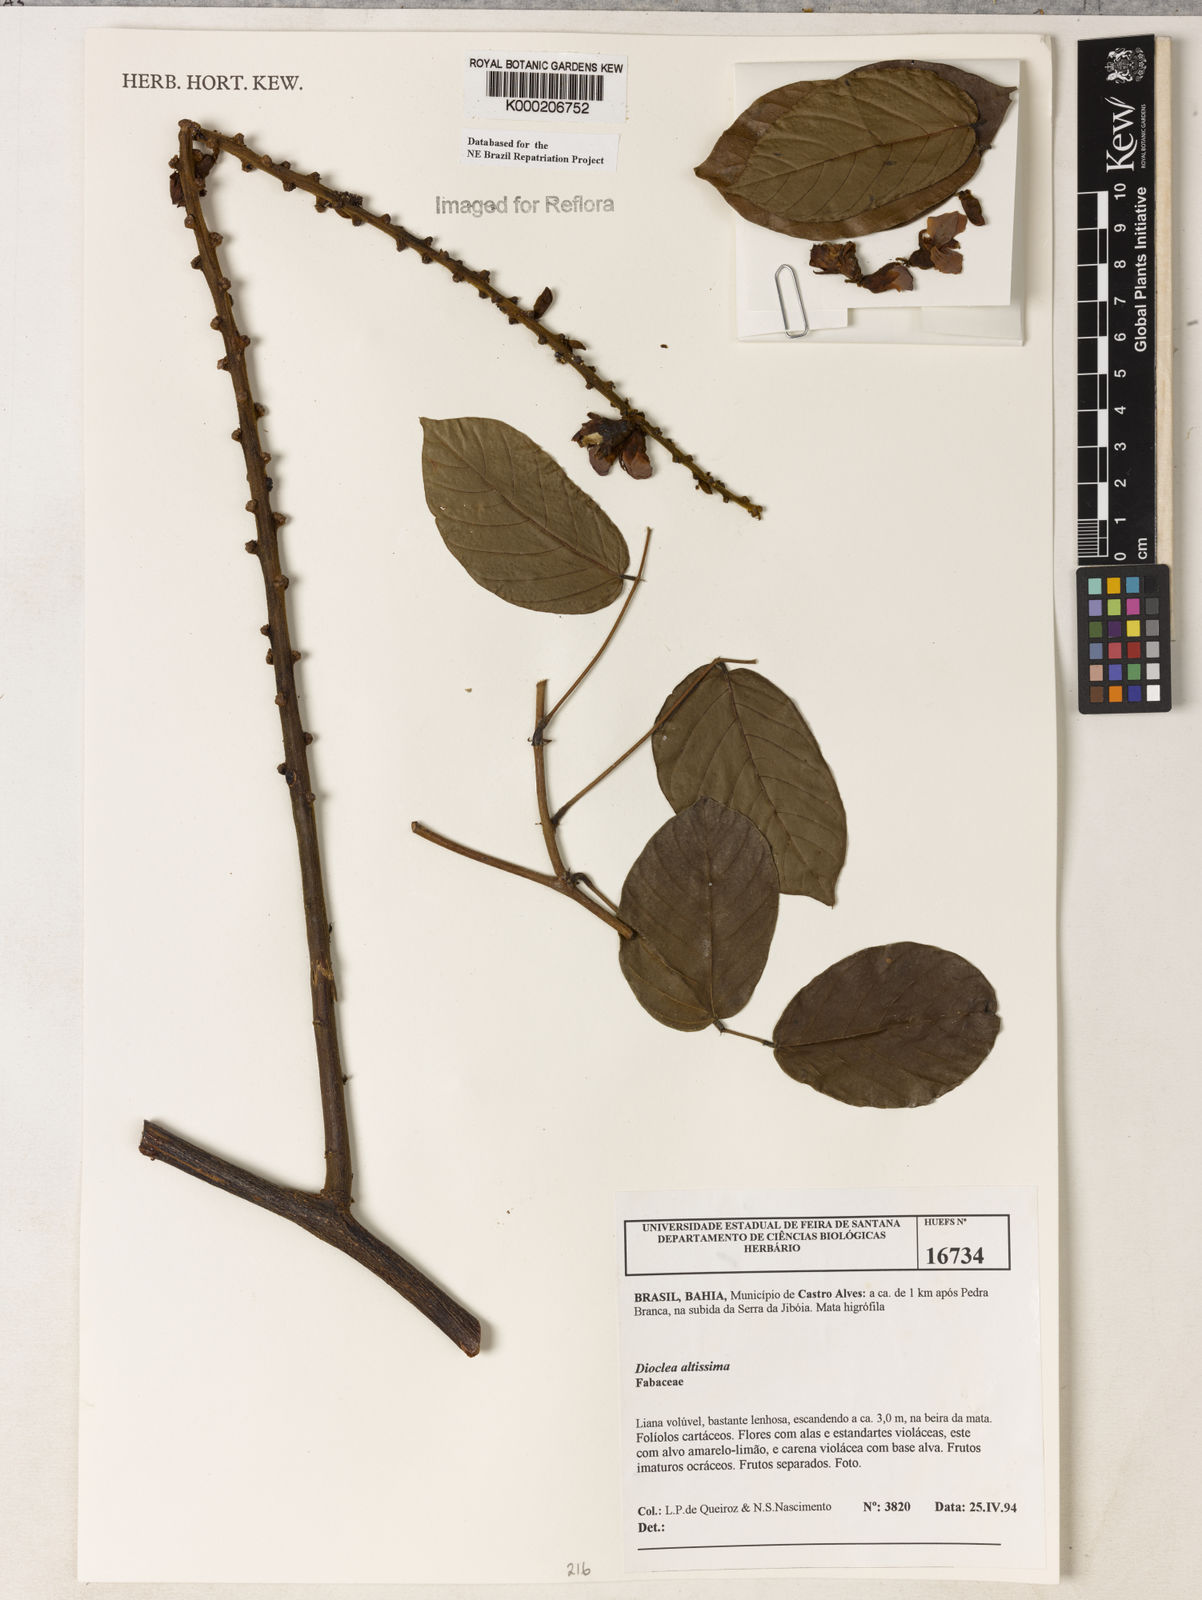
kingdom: Plantae
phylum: Tracheophyta
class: Magnoliopsida
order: Fabales
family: Fabaceae
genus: Macropsychanthus
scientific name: Macropsychanthus violaceus
